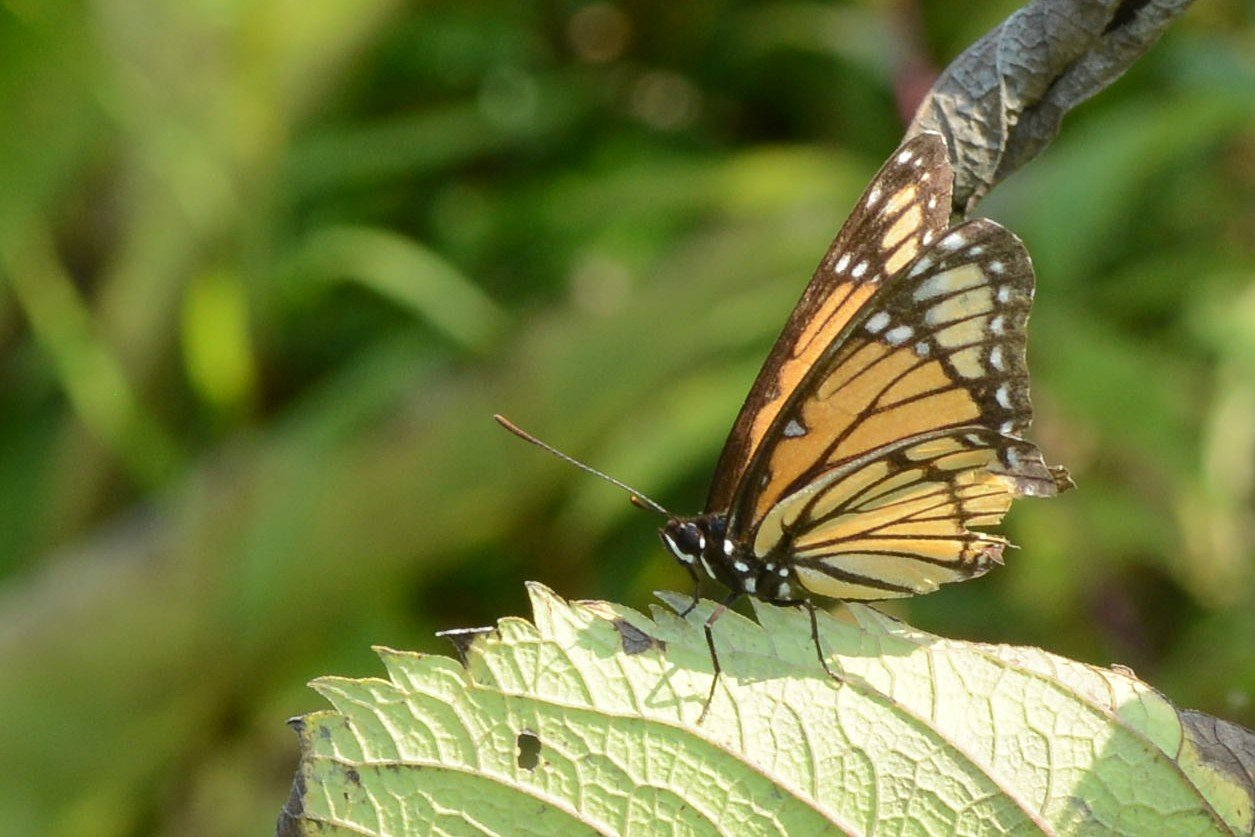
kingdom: Animalia
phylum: Arthropoda
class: Insecta
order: Lepidoptera
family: Nymphalidae
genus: Limenitis
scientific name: Limenitis archippus
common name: Viceroy
